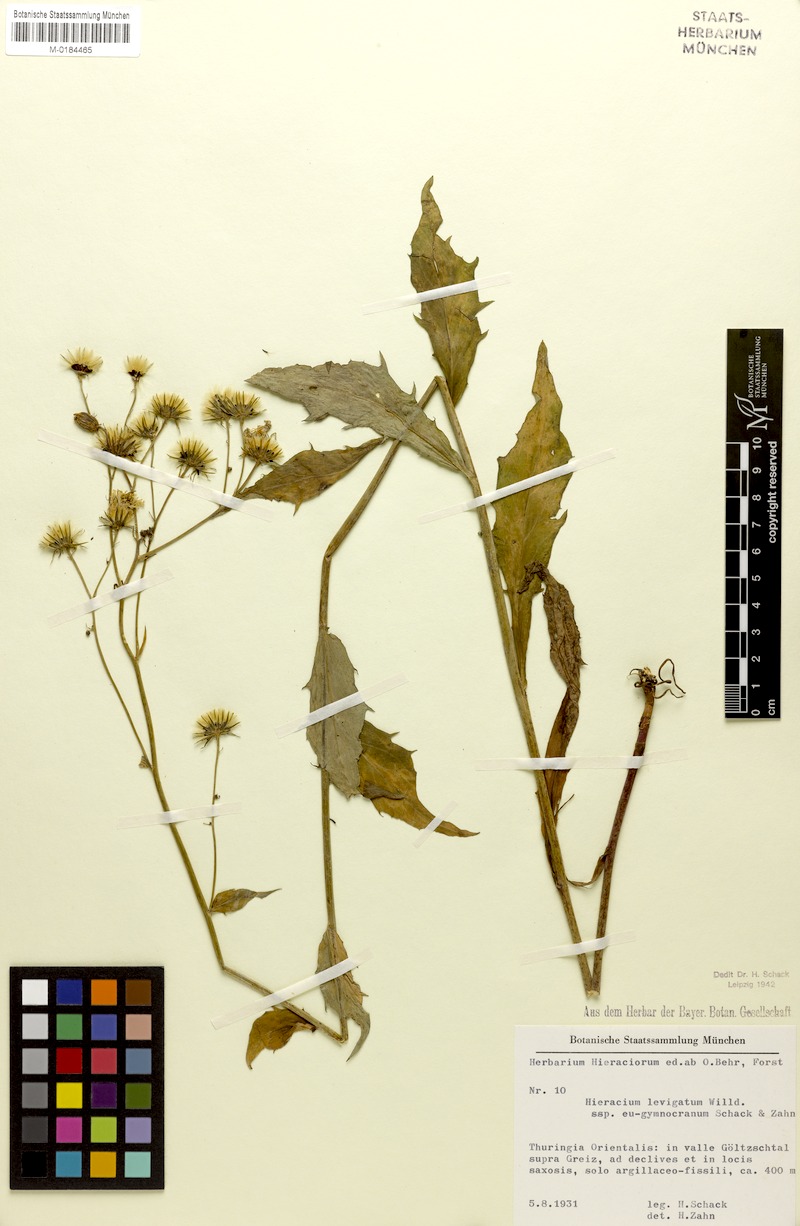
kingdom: Plantae
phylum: Tracheophyta
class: Magnoliopsida
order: Asterales
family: Asteraceae
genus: Hieracium
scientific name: Hieracium laevigatum
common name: Smooth hawkweed
